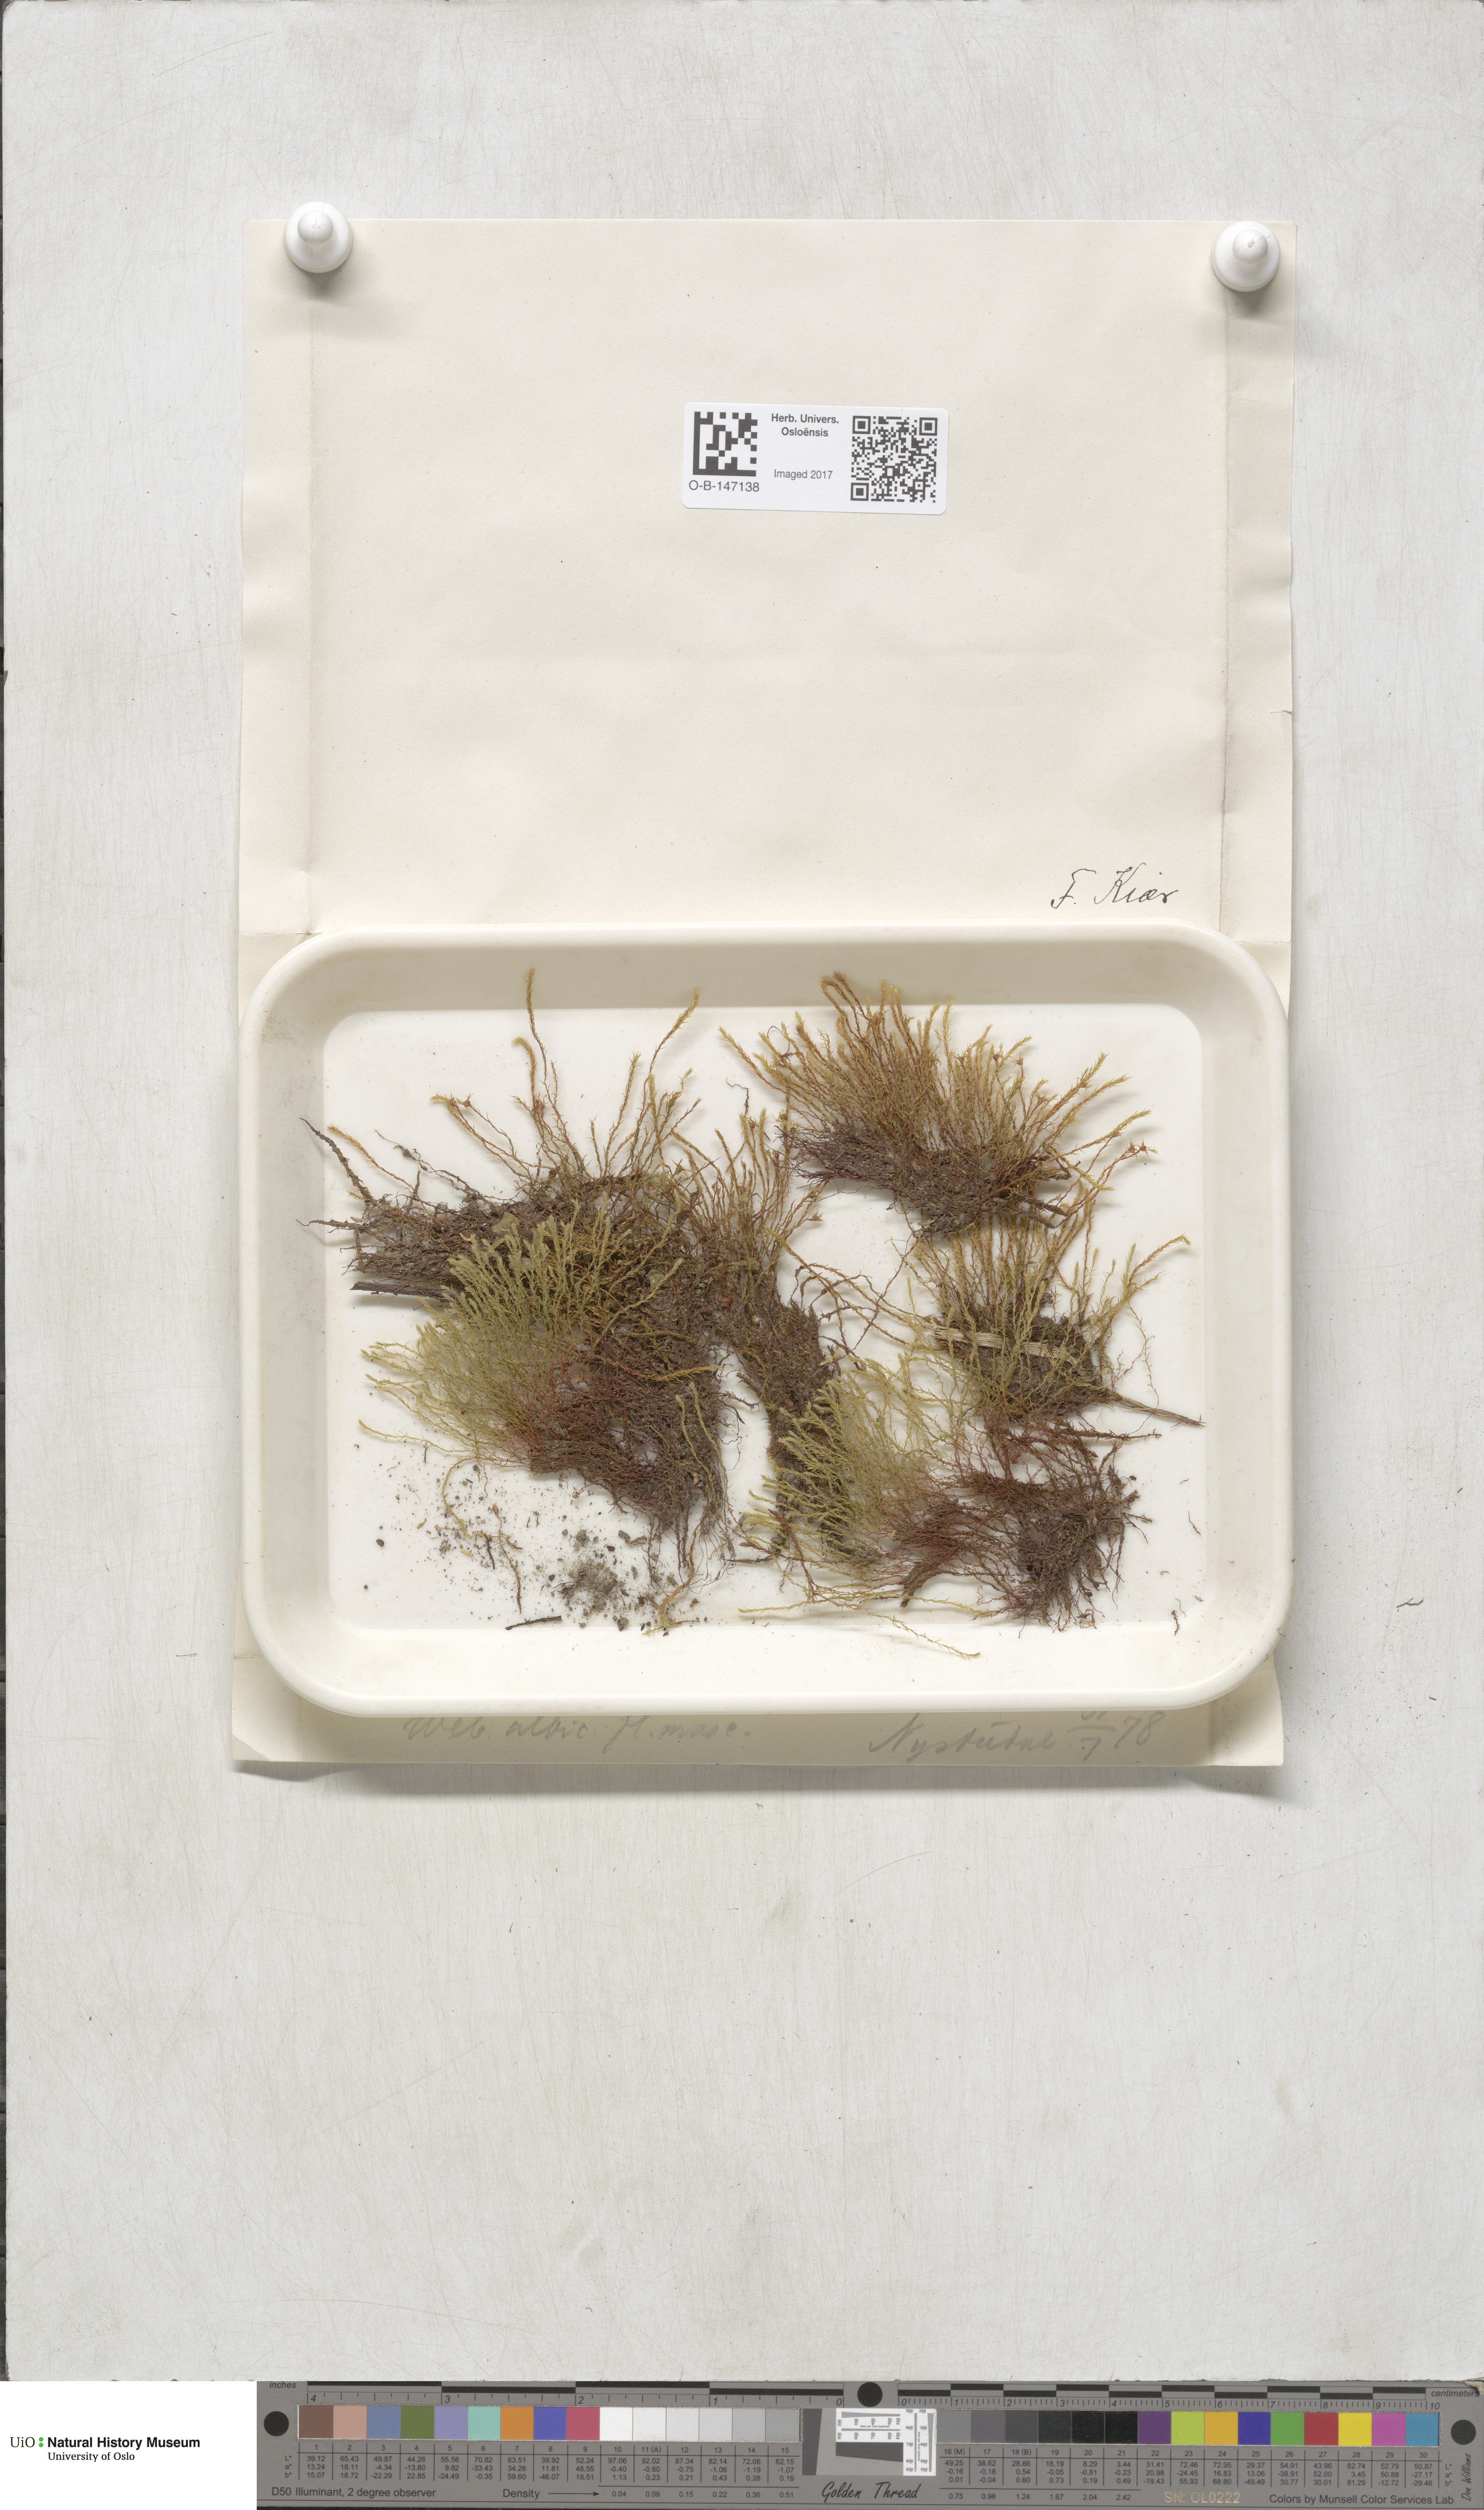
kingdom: Plantae
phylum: Bryophyta
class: Bryopsida
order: Bryales
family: Mniaceae
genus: Pohlia
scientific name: Pohlia wahlenbergii
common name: Wahlenberg's nodding moss
